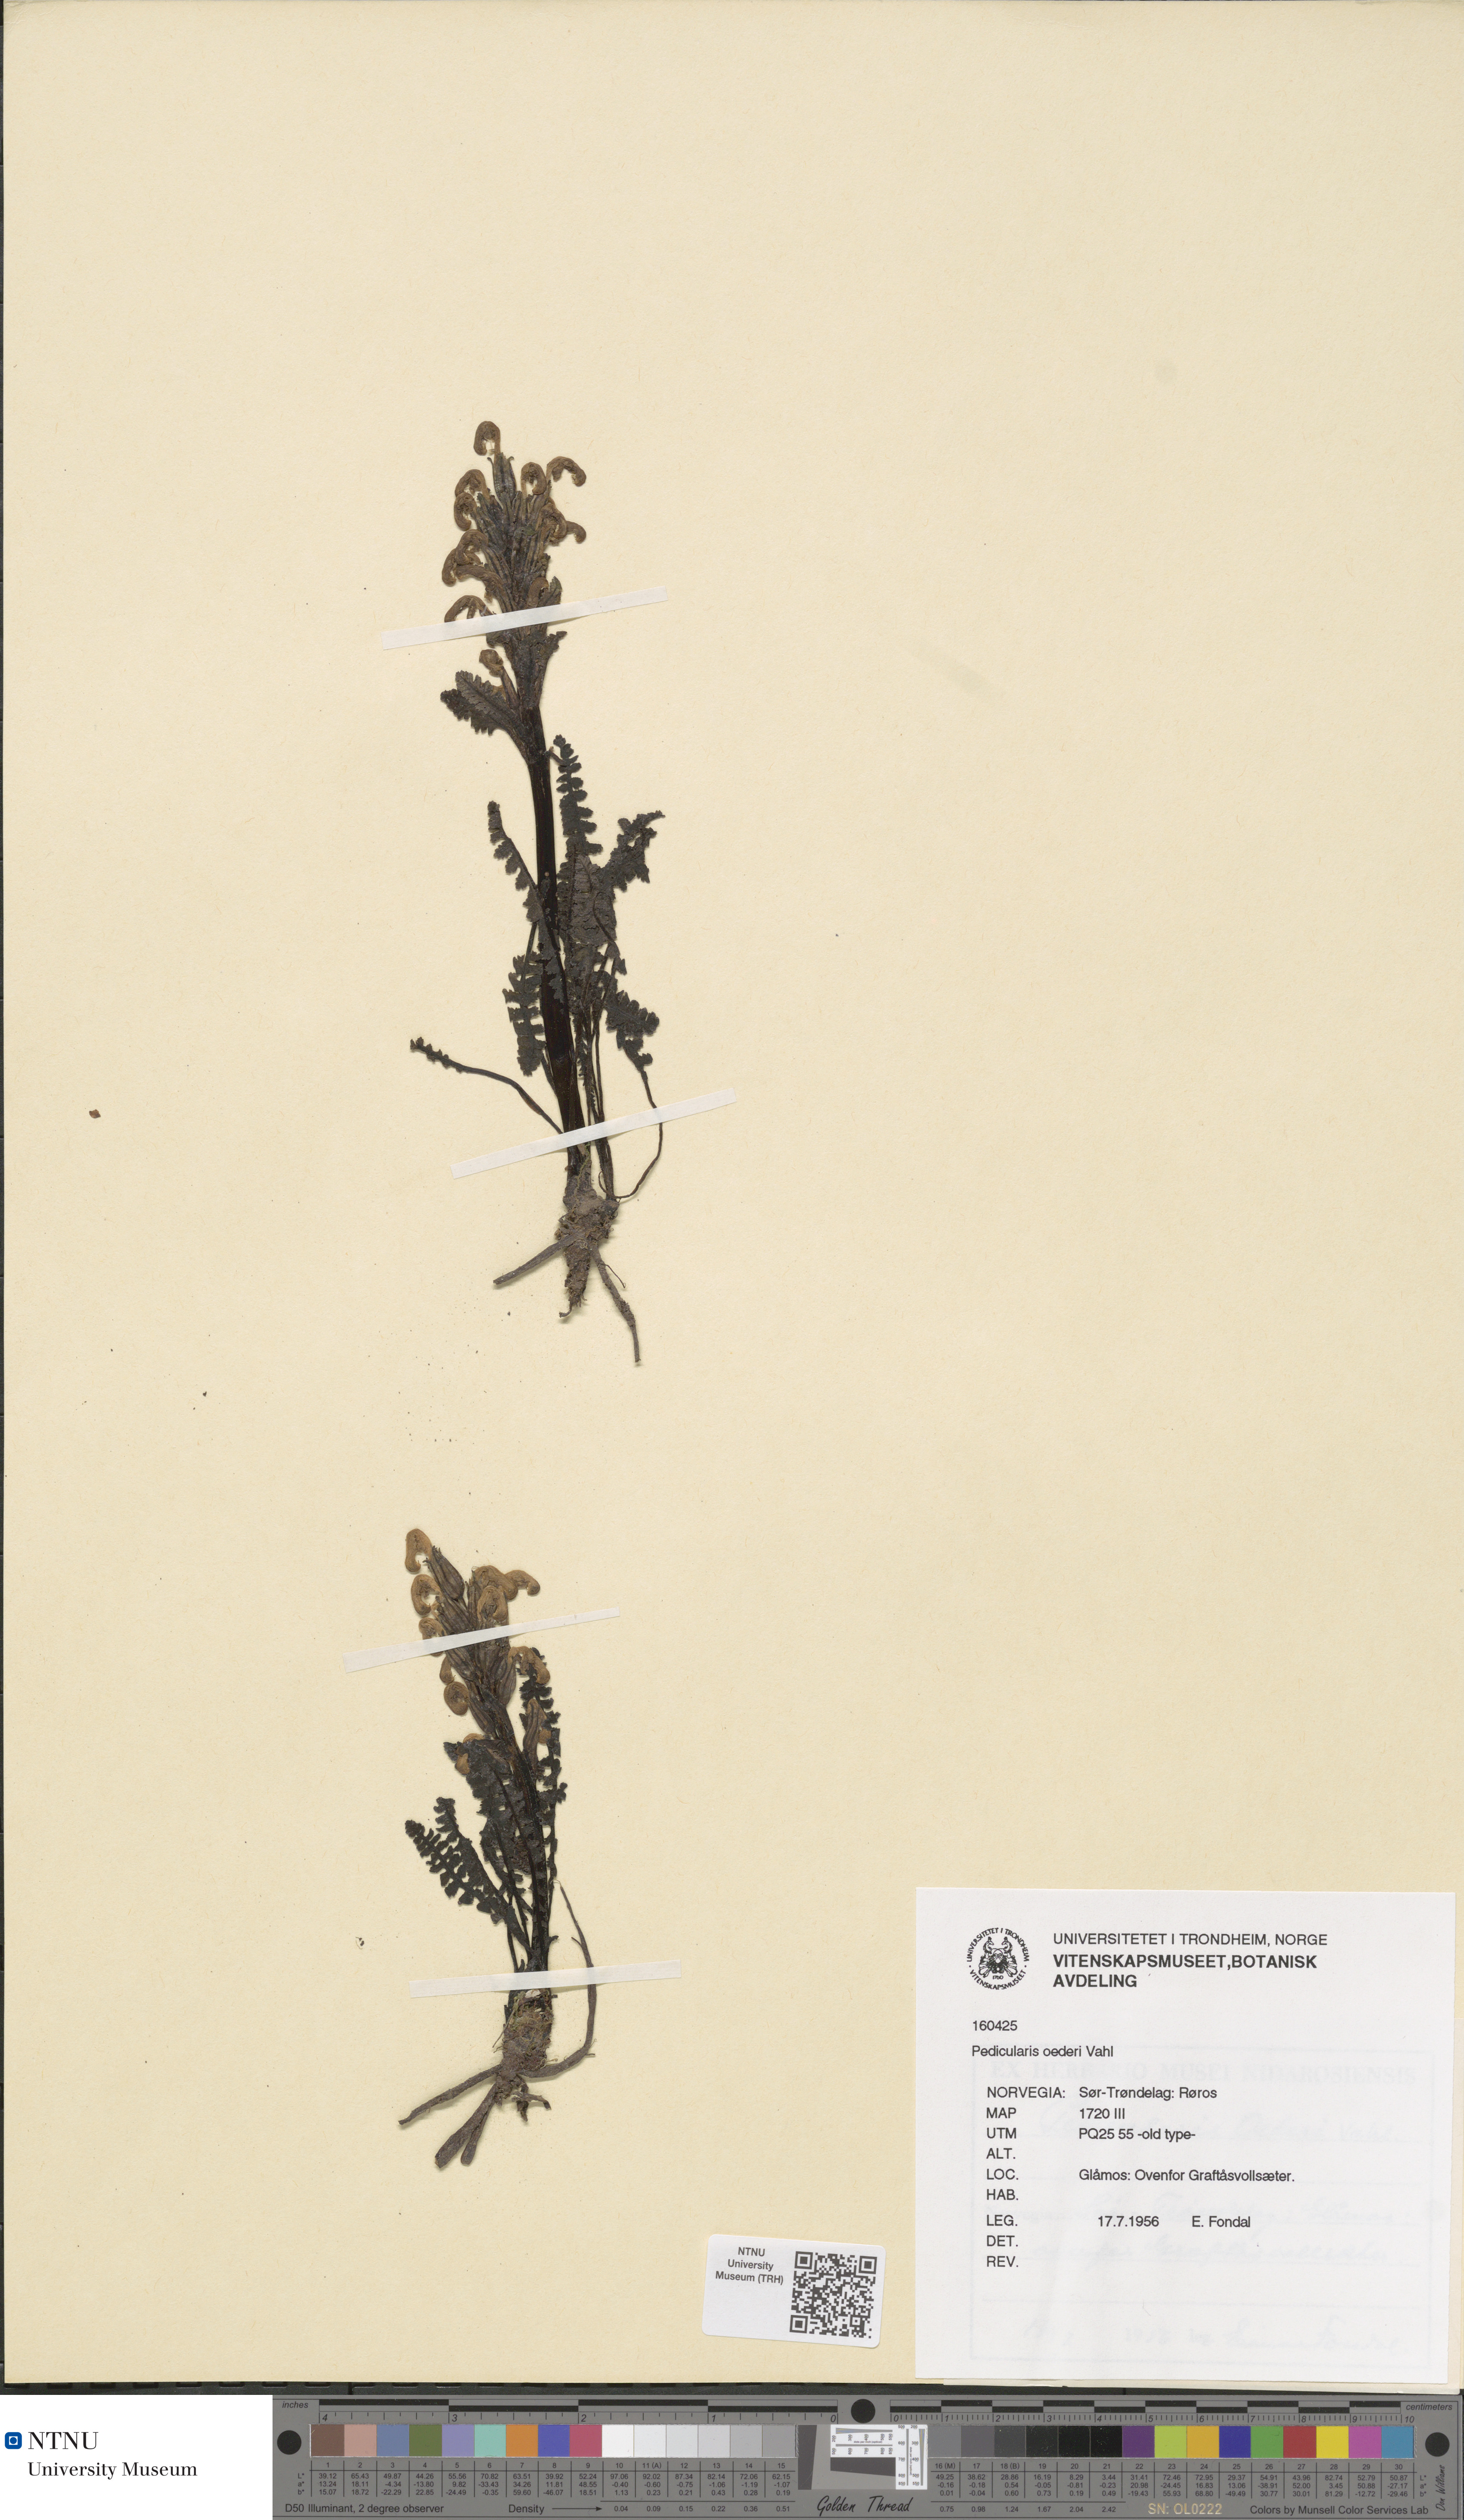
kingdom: Plantae
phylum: Tracheophyta
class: Magnoliopsida
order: Lamiales
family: Orobanchaceae
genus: Pedicularis
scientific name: Pedicularis oederi
